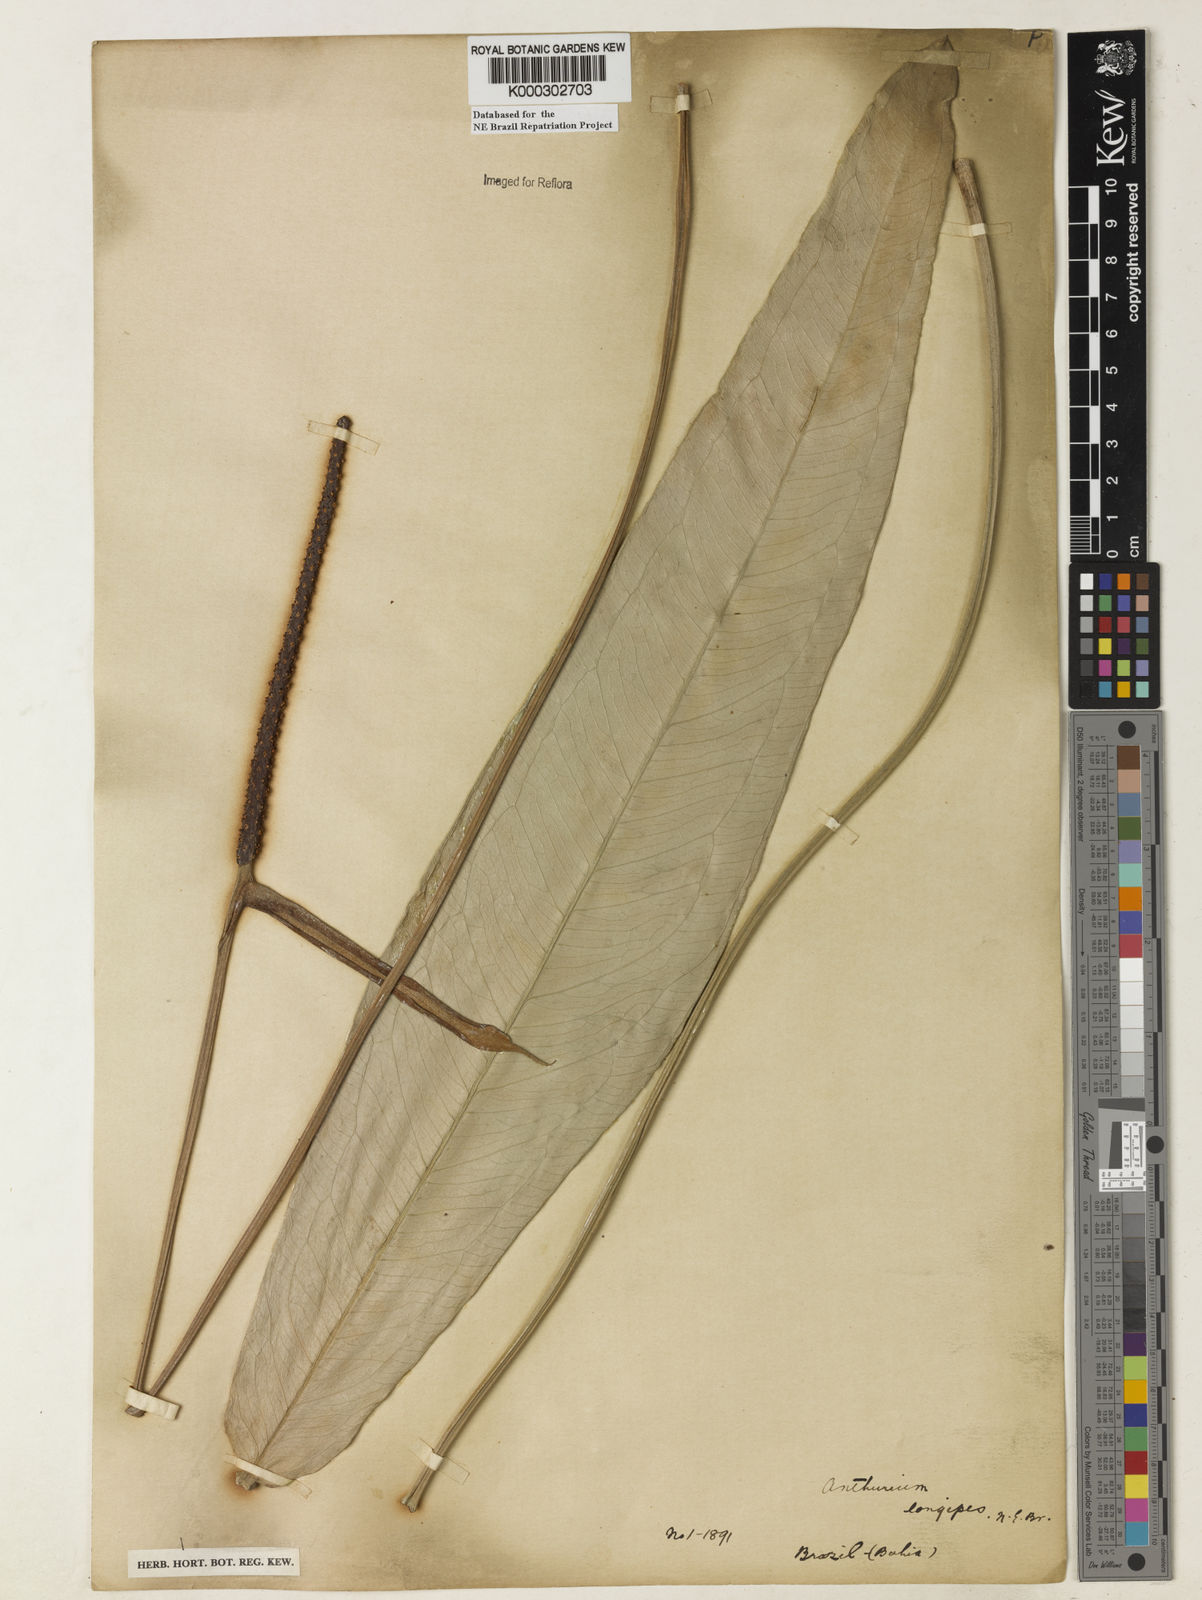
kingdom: Plantae
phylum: Tracheophyta
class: Liliopsida
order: Alismatales
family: Araceae
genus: Anthurium
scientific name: Anthurium longipes
